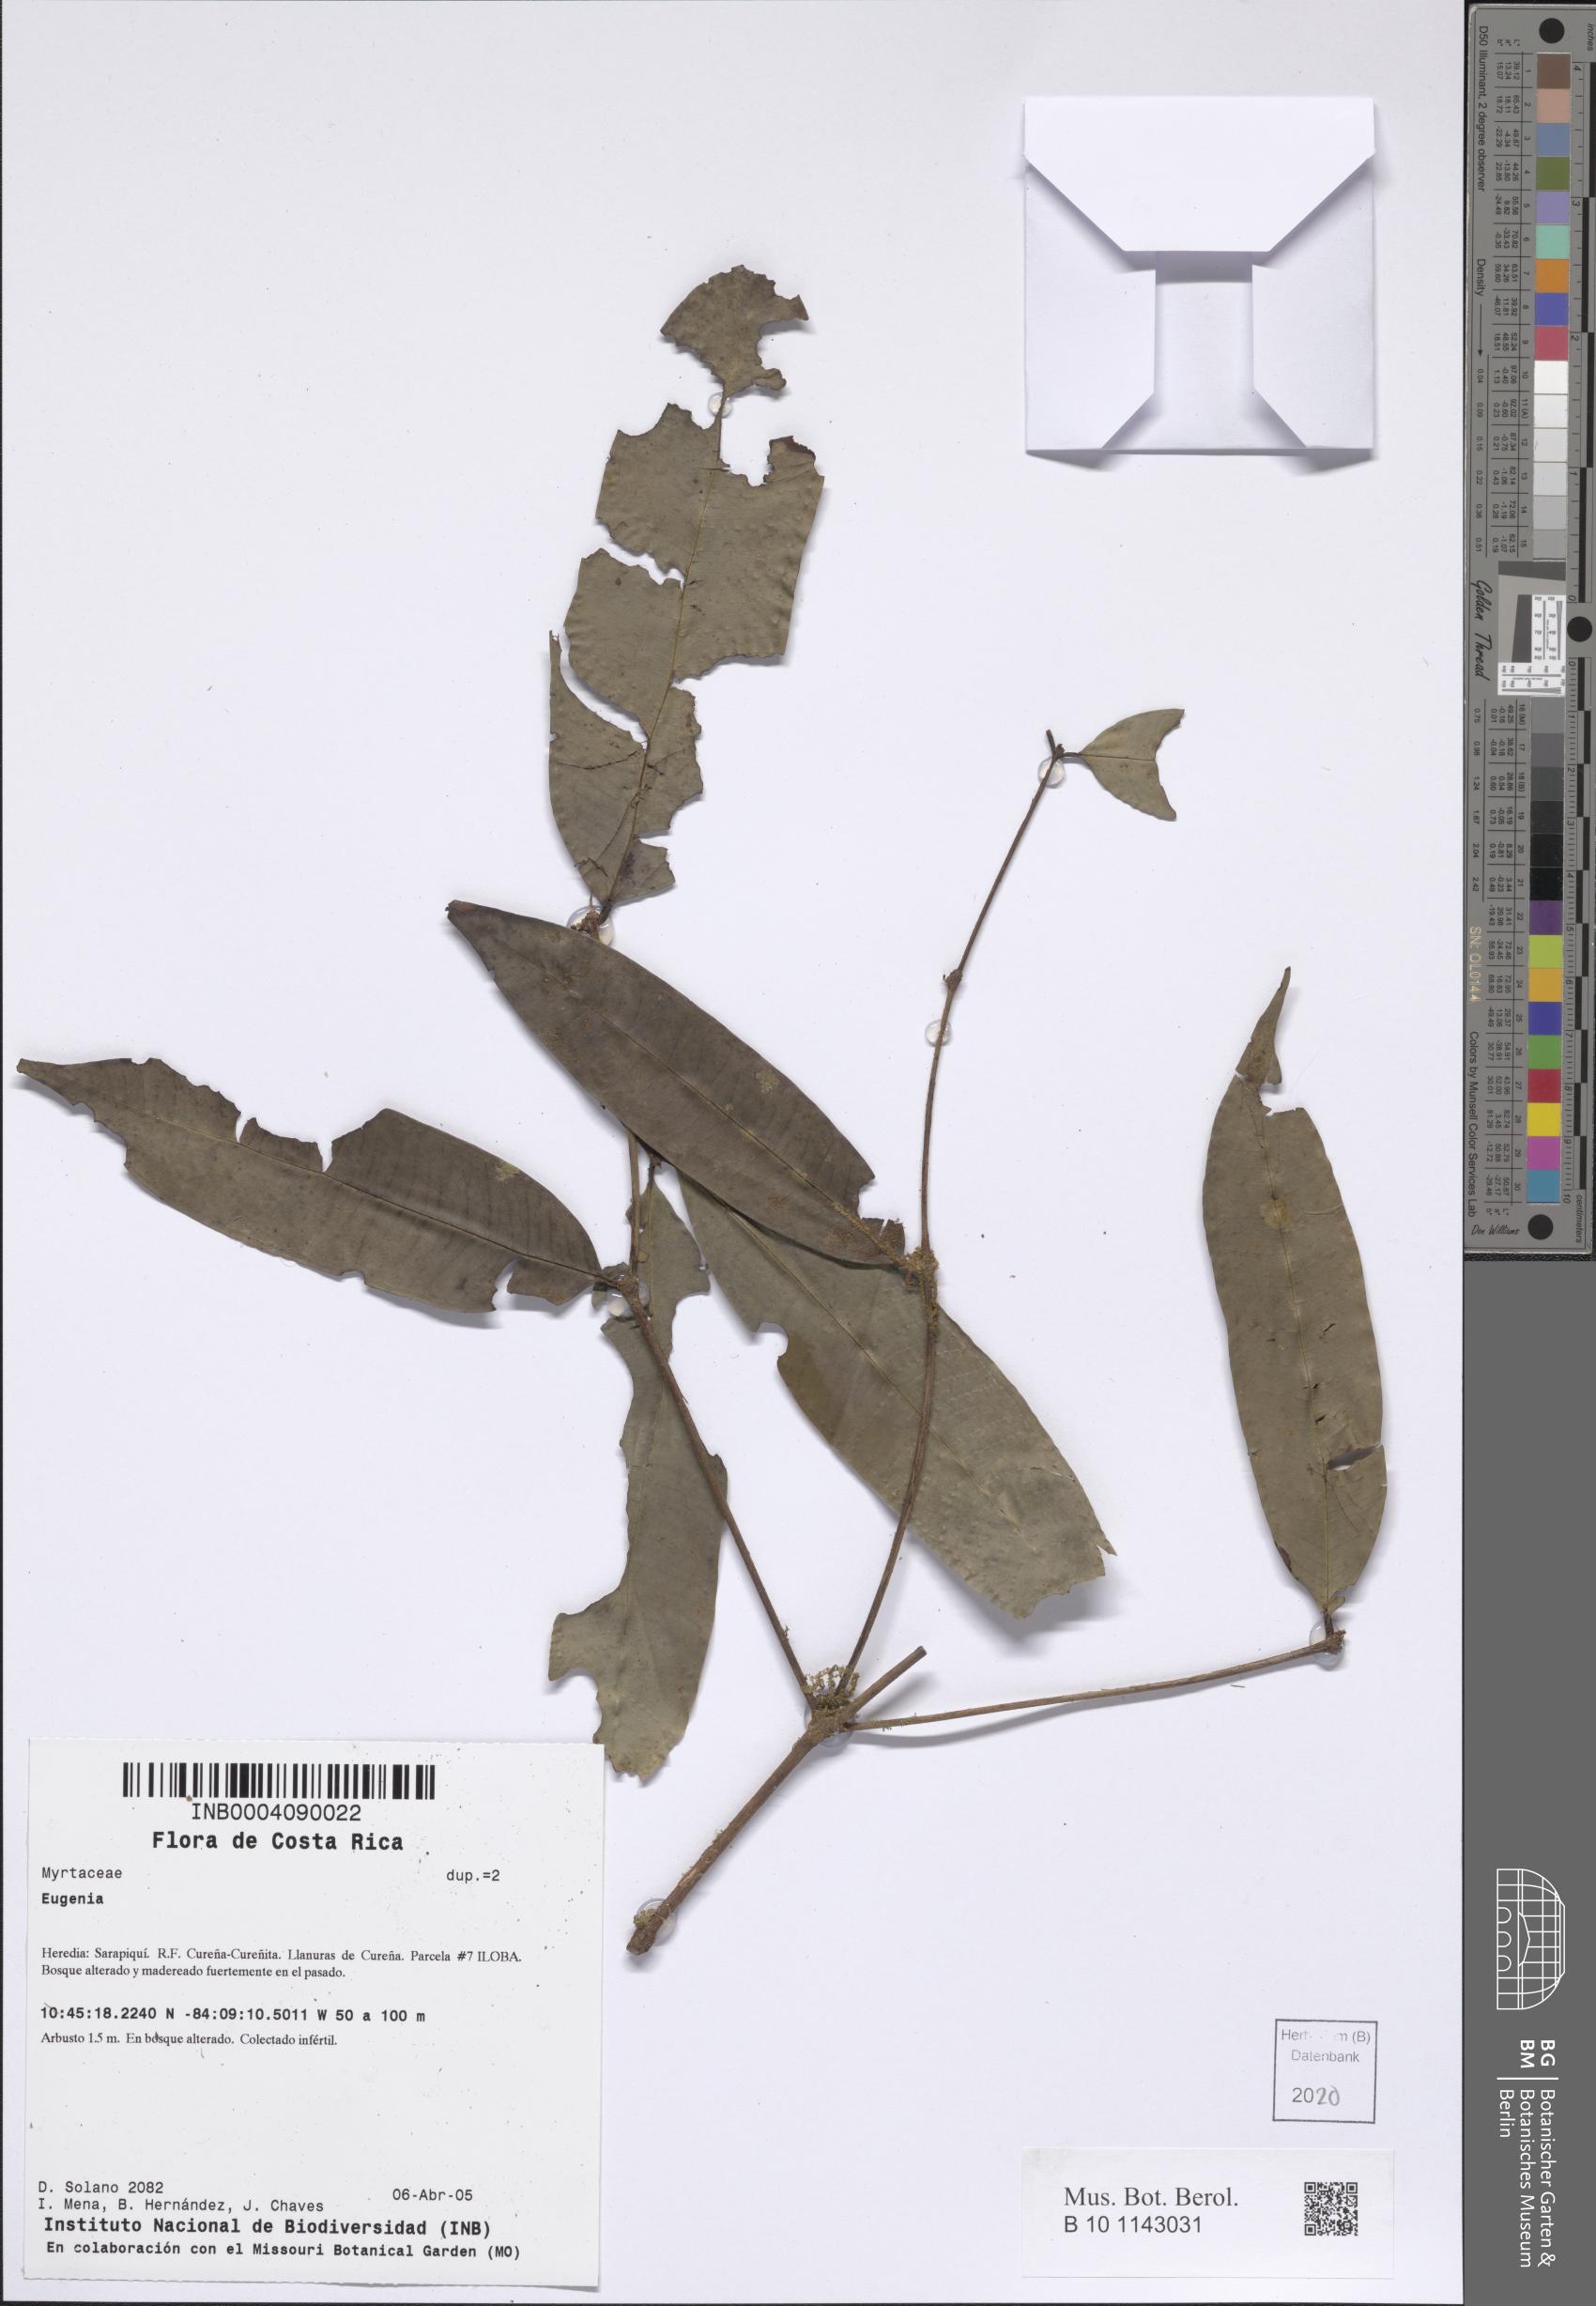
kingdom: Plantae
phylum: Tracheophyta
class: Magnoliopsida
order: Myrtales
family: Myrtaceae
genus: Eugenia
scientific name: Eugenia
